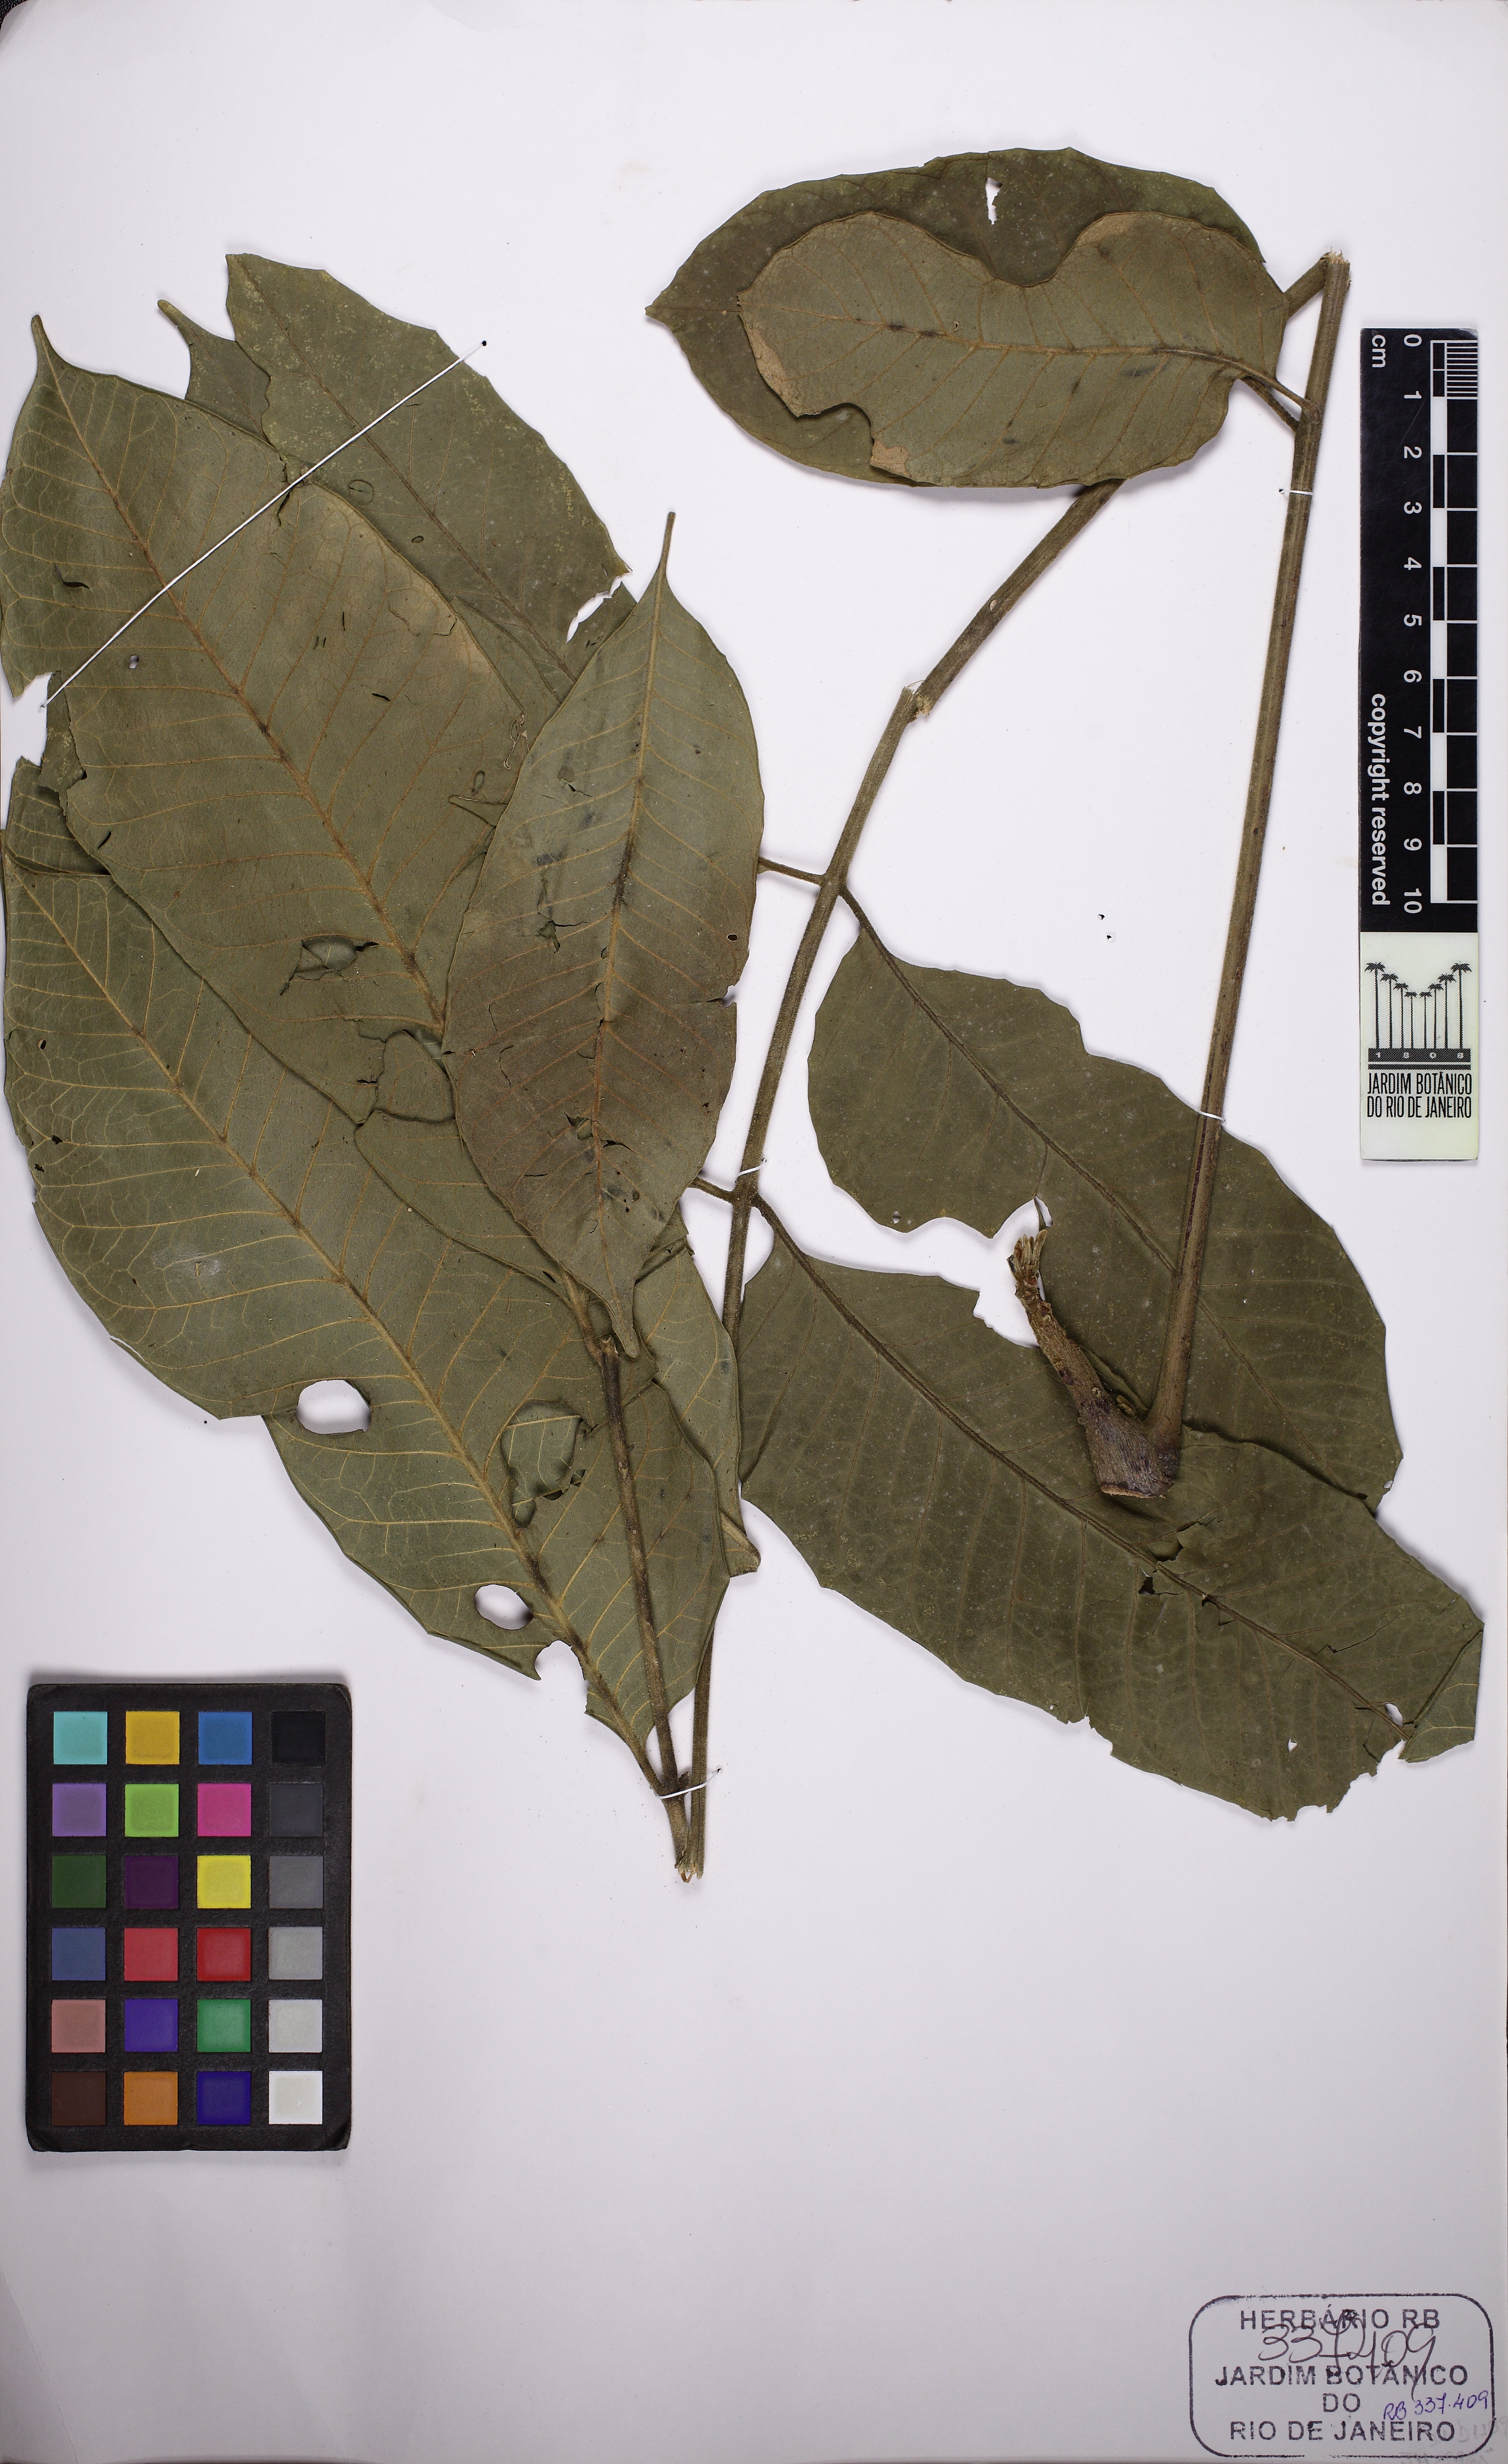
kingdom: Plantae
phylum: Tracheophyta
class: Magnoliopsida
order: Sapindales
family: Meliaceae
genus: Cabralea
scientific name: Cabralea canjerana
